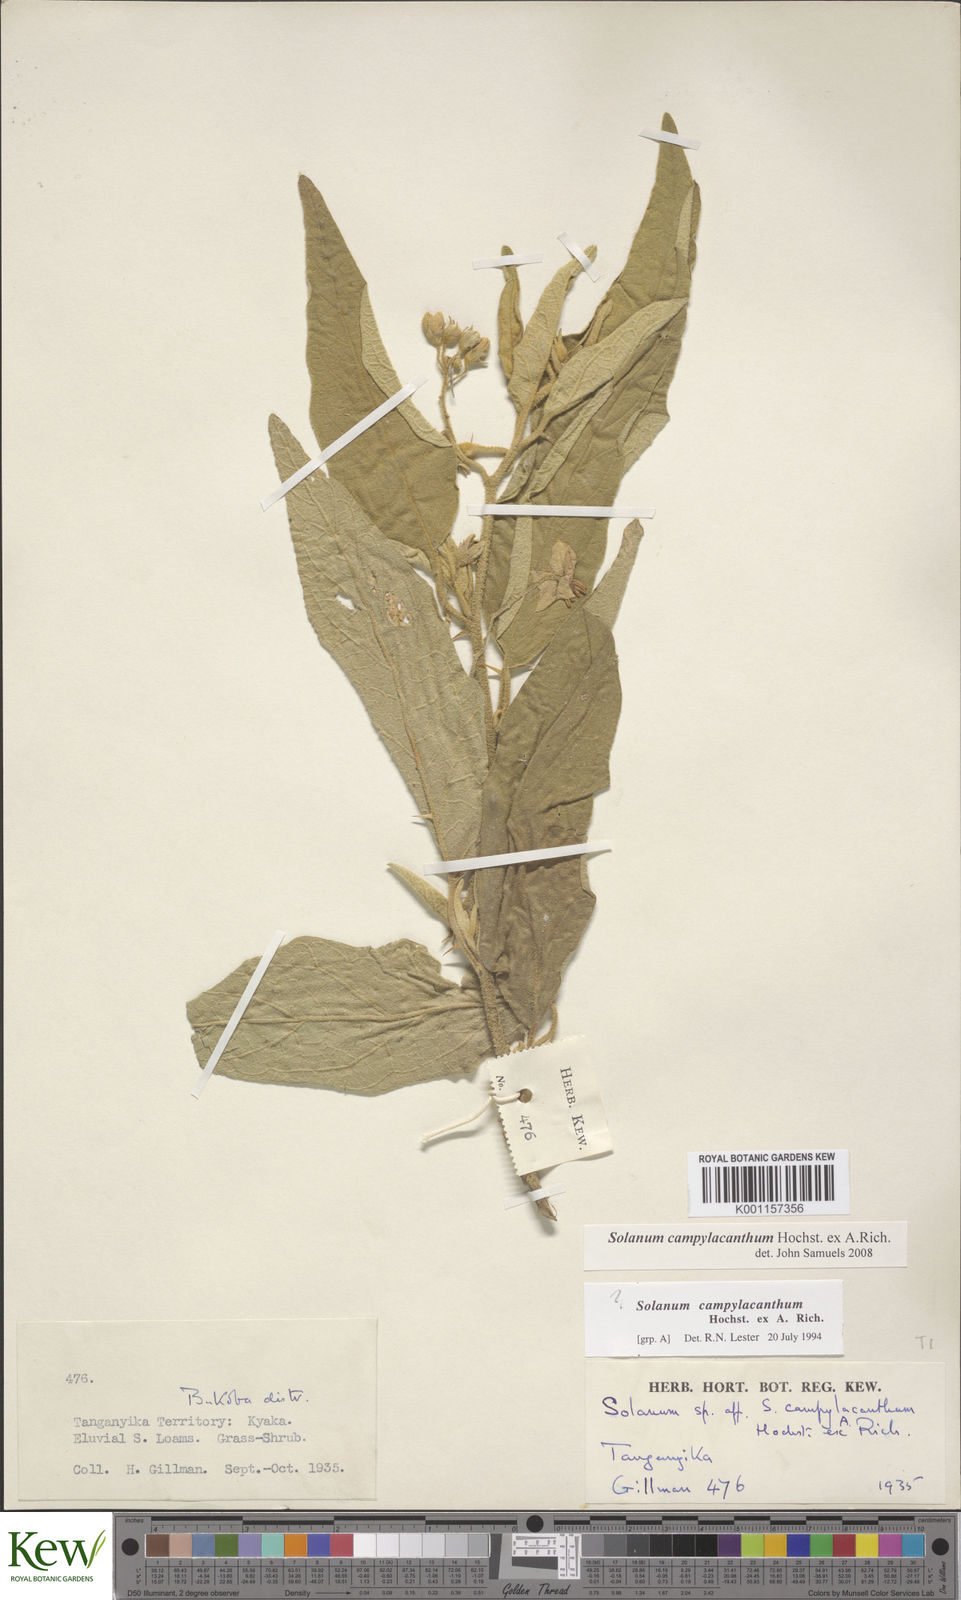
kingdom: Plantae
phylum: Tracheophyta
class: Magnoliopsida
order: Solanales
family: Solanaceae
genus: Solanum
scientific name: Solanum campylacanthum
